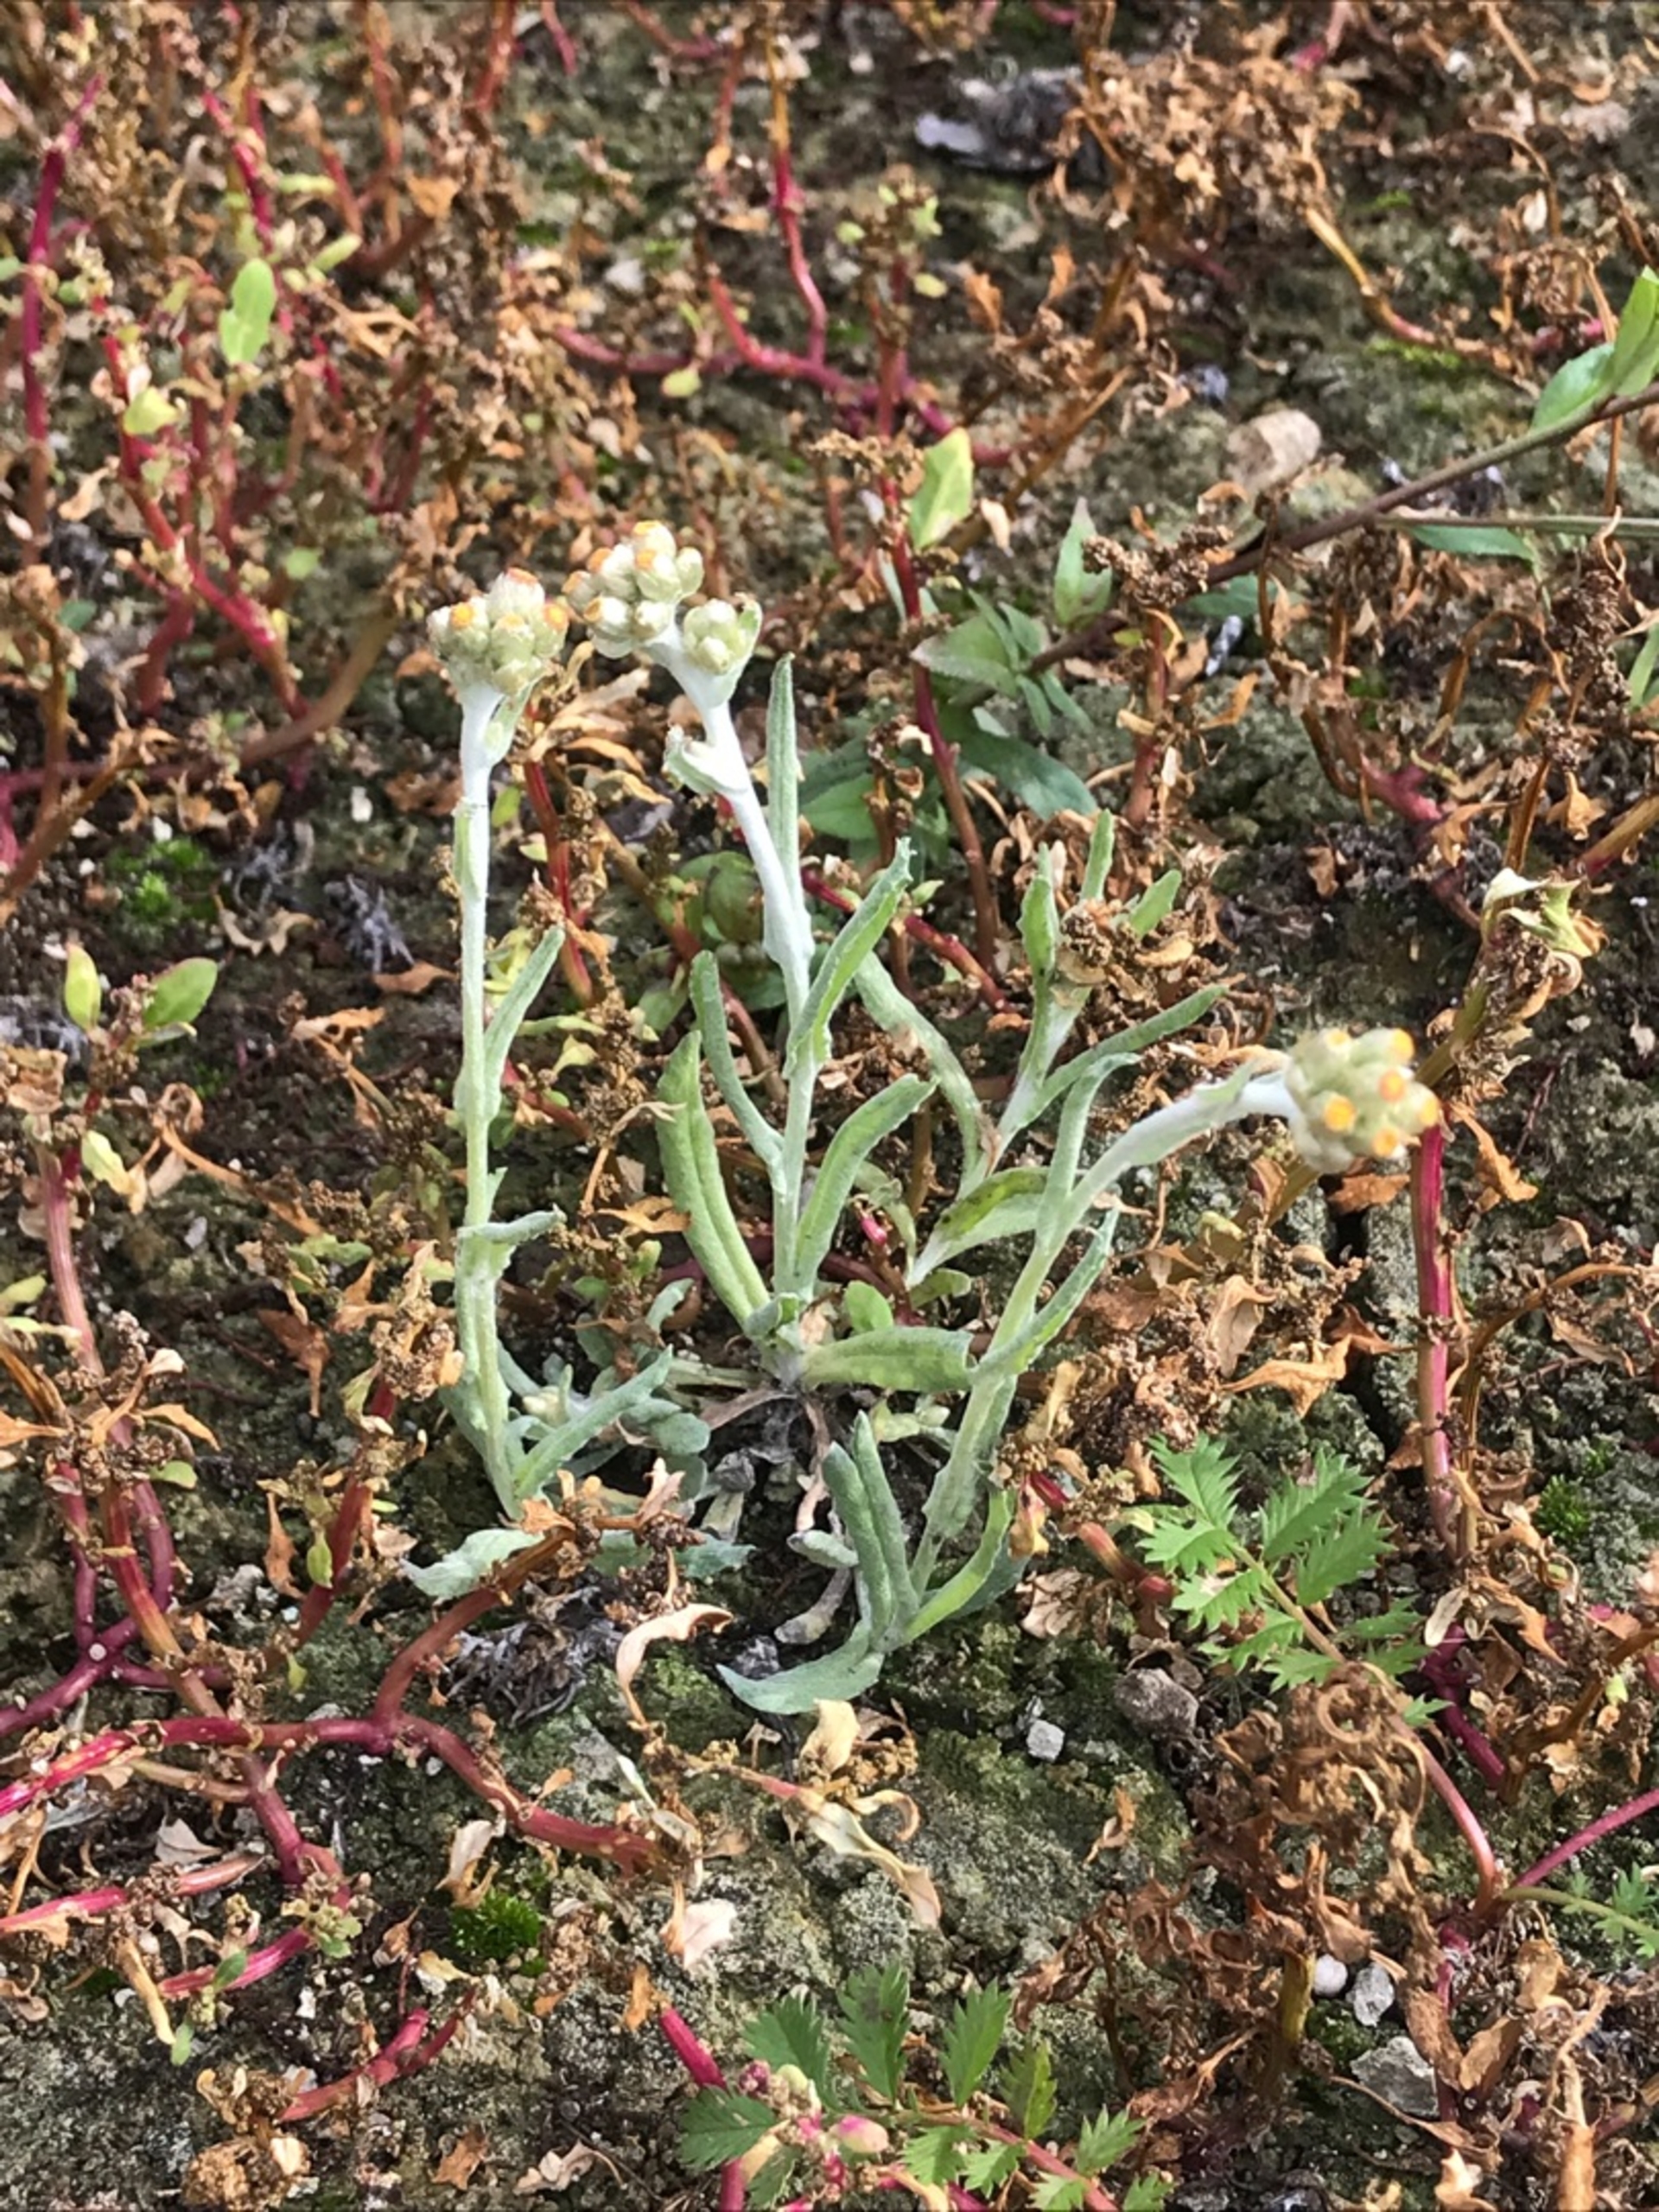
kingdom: Plantae
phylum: Tracheophyta
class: Magnoliopsida
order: Asterales
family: Asteraceae
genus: Helichrysum
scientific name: Helichrysum luteoalbum
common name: Gulhvid evighedsblomst
